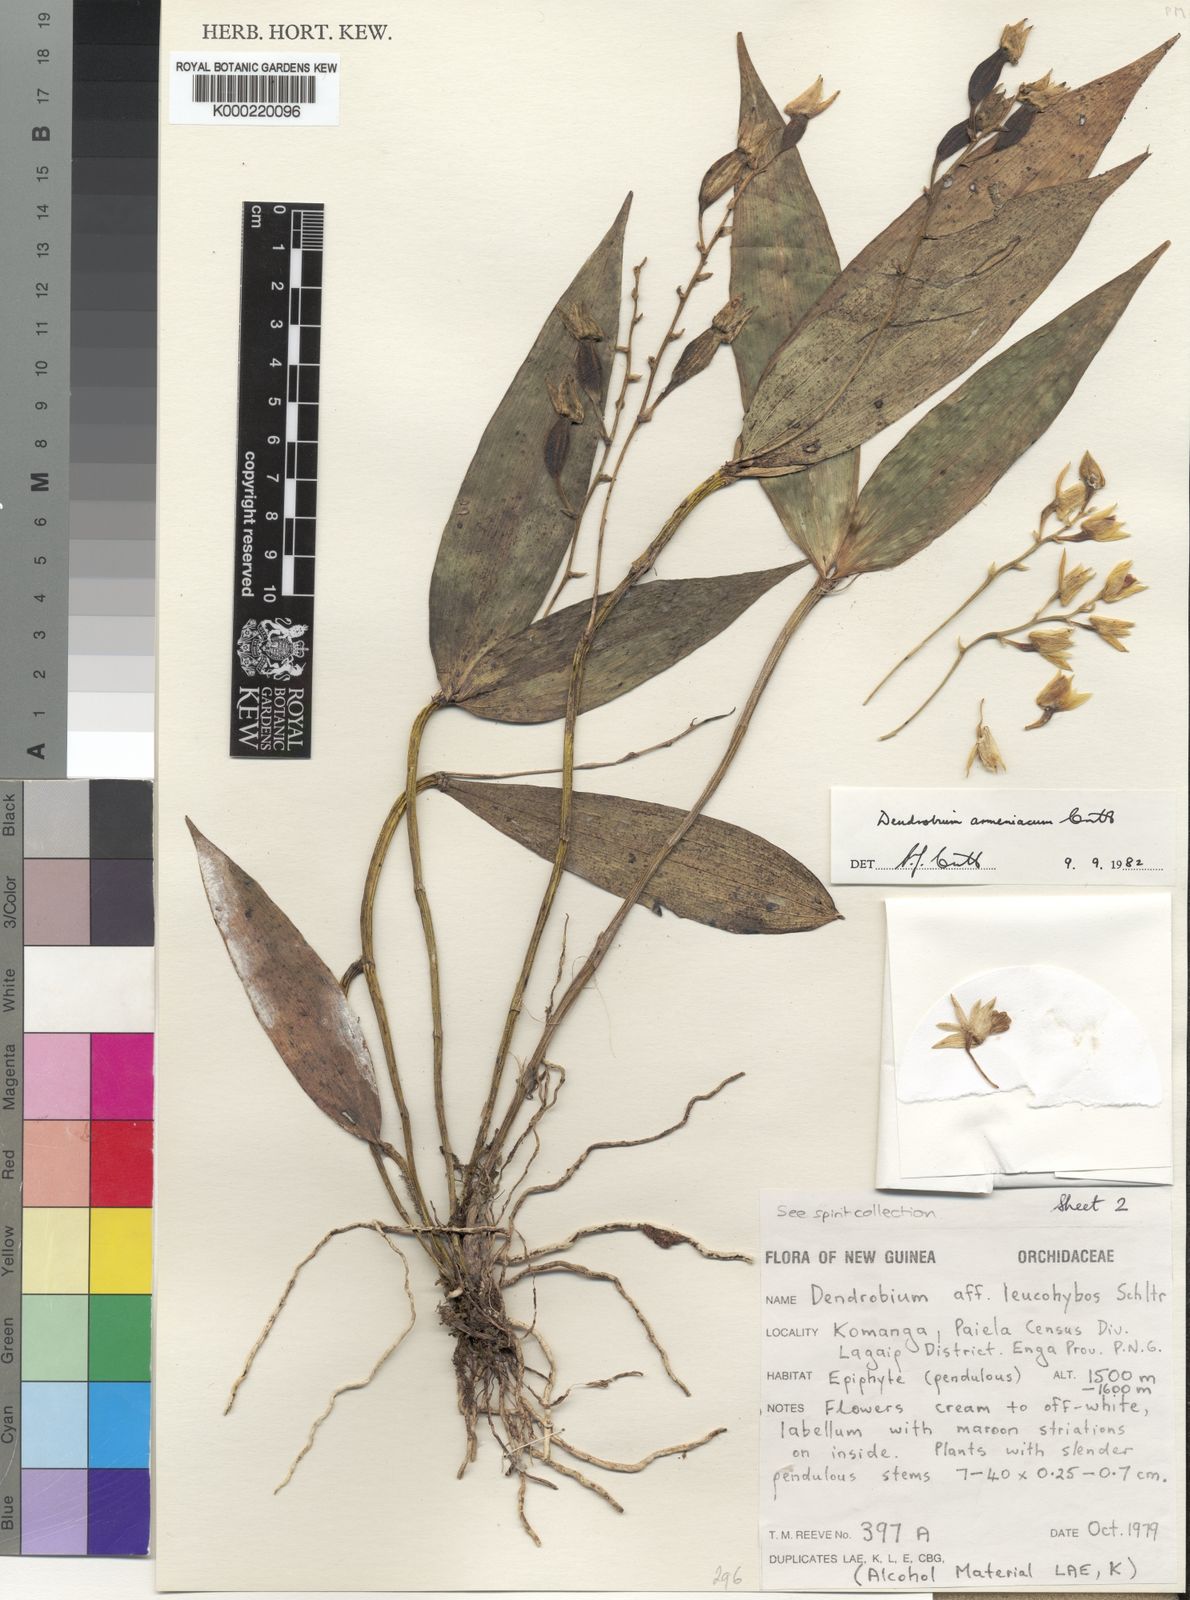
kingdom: Plantae
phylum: Tracheophyta
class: Liliopsida
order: Asparagales
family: Orchidaceae
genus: Dendrobium
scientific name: Dendrobium armeniacum
